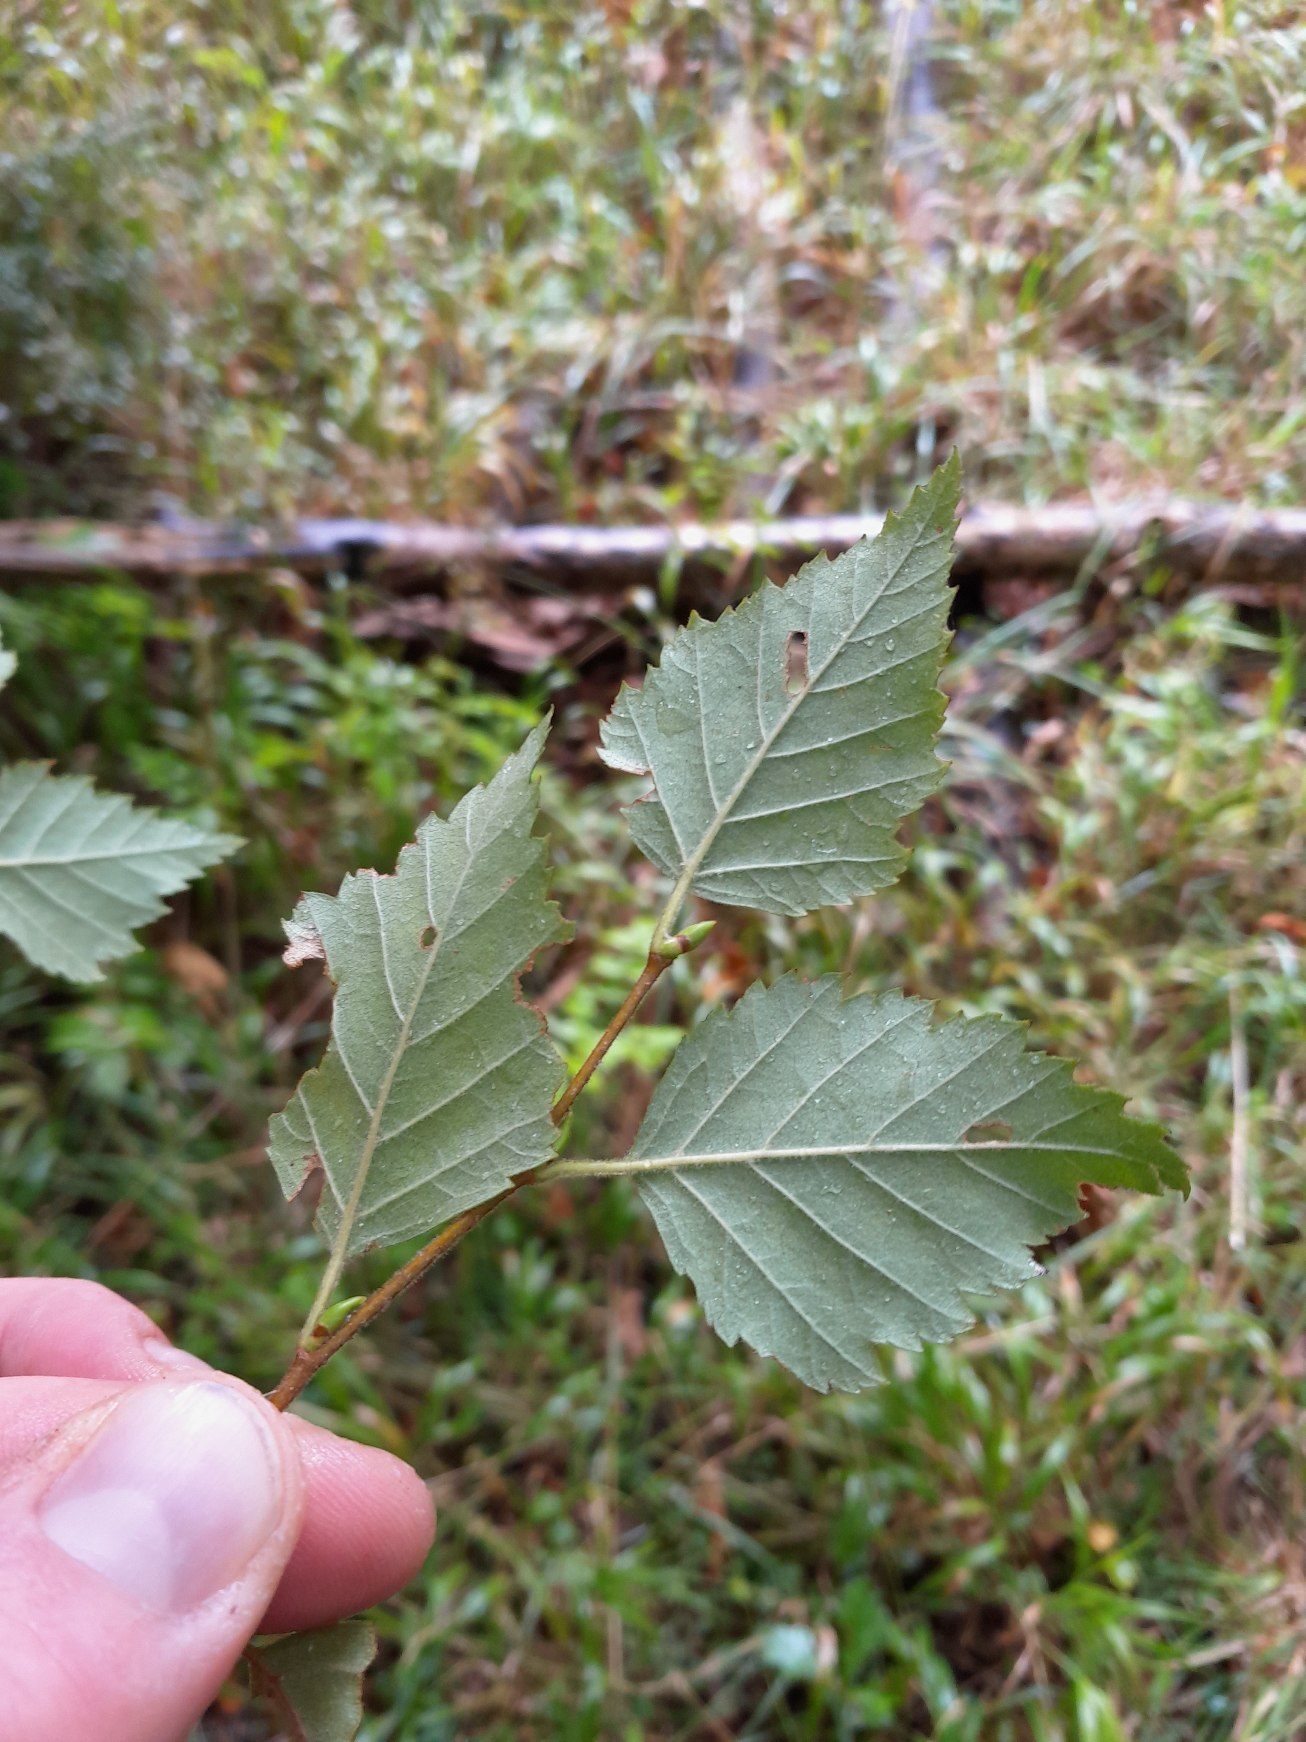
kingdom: Plantae
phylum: Tracheophyta
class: Magnoliopsida
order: Fagales
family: Betulaceae
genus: Betula
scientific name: Betula pubescens
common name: Dun-birk
